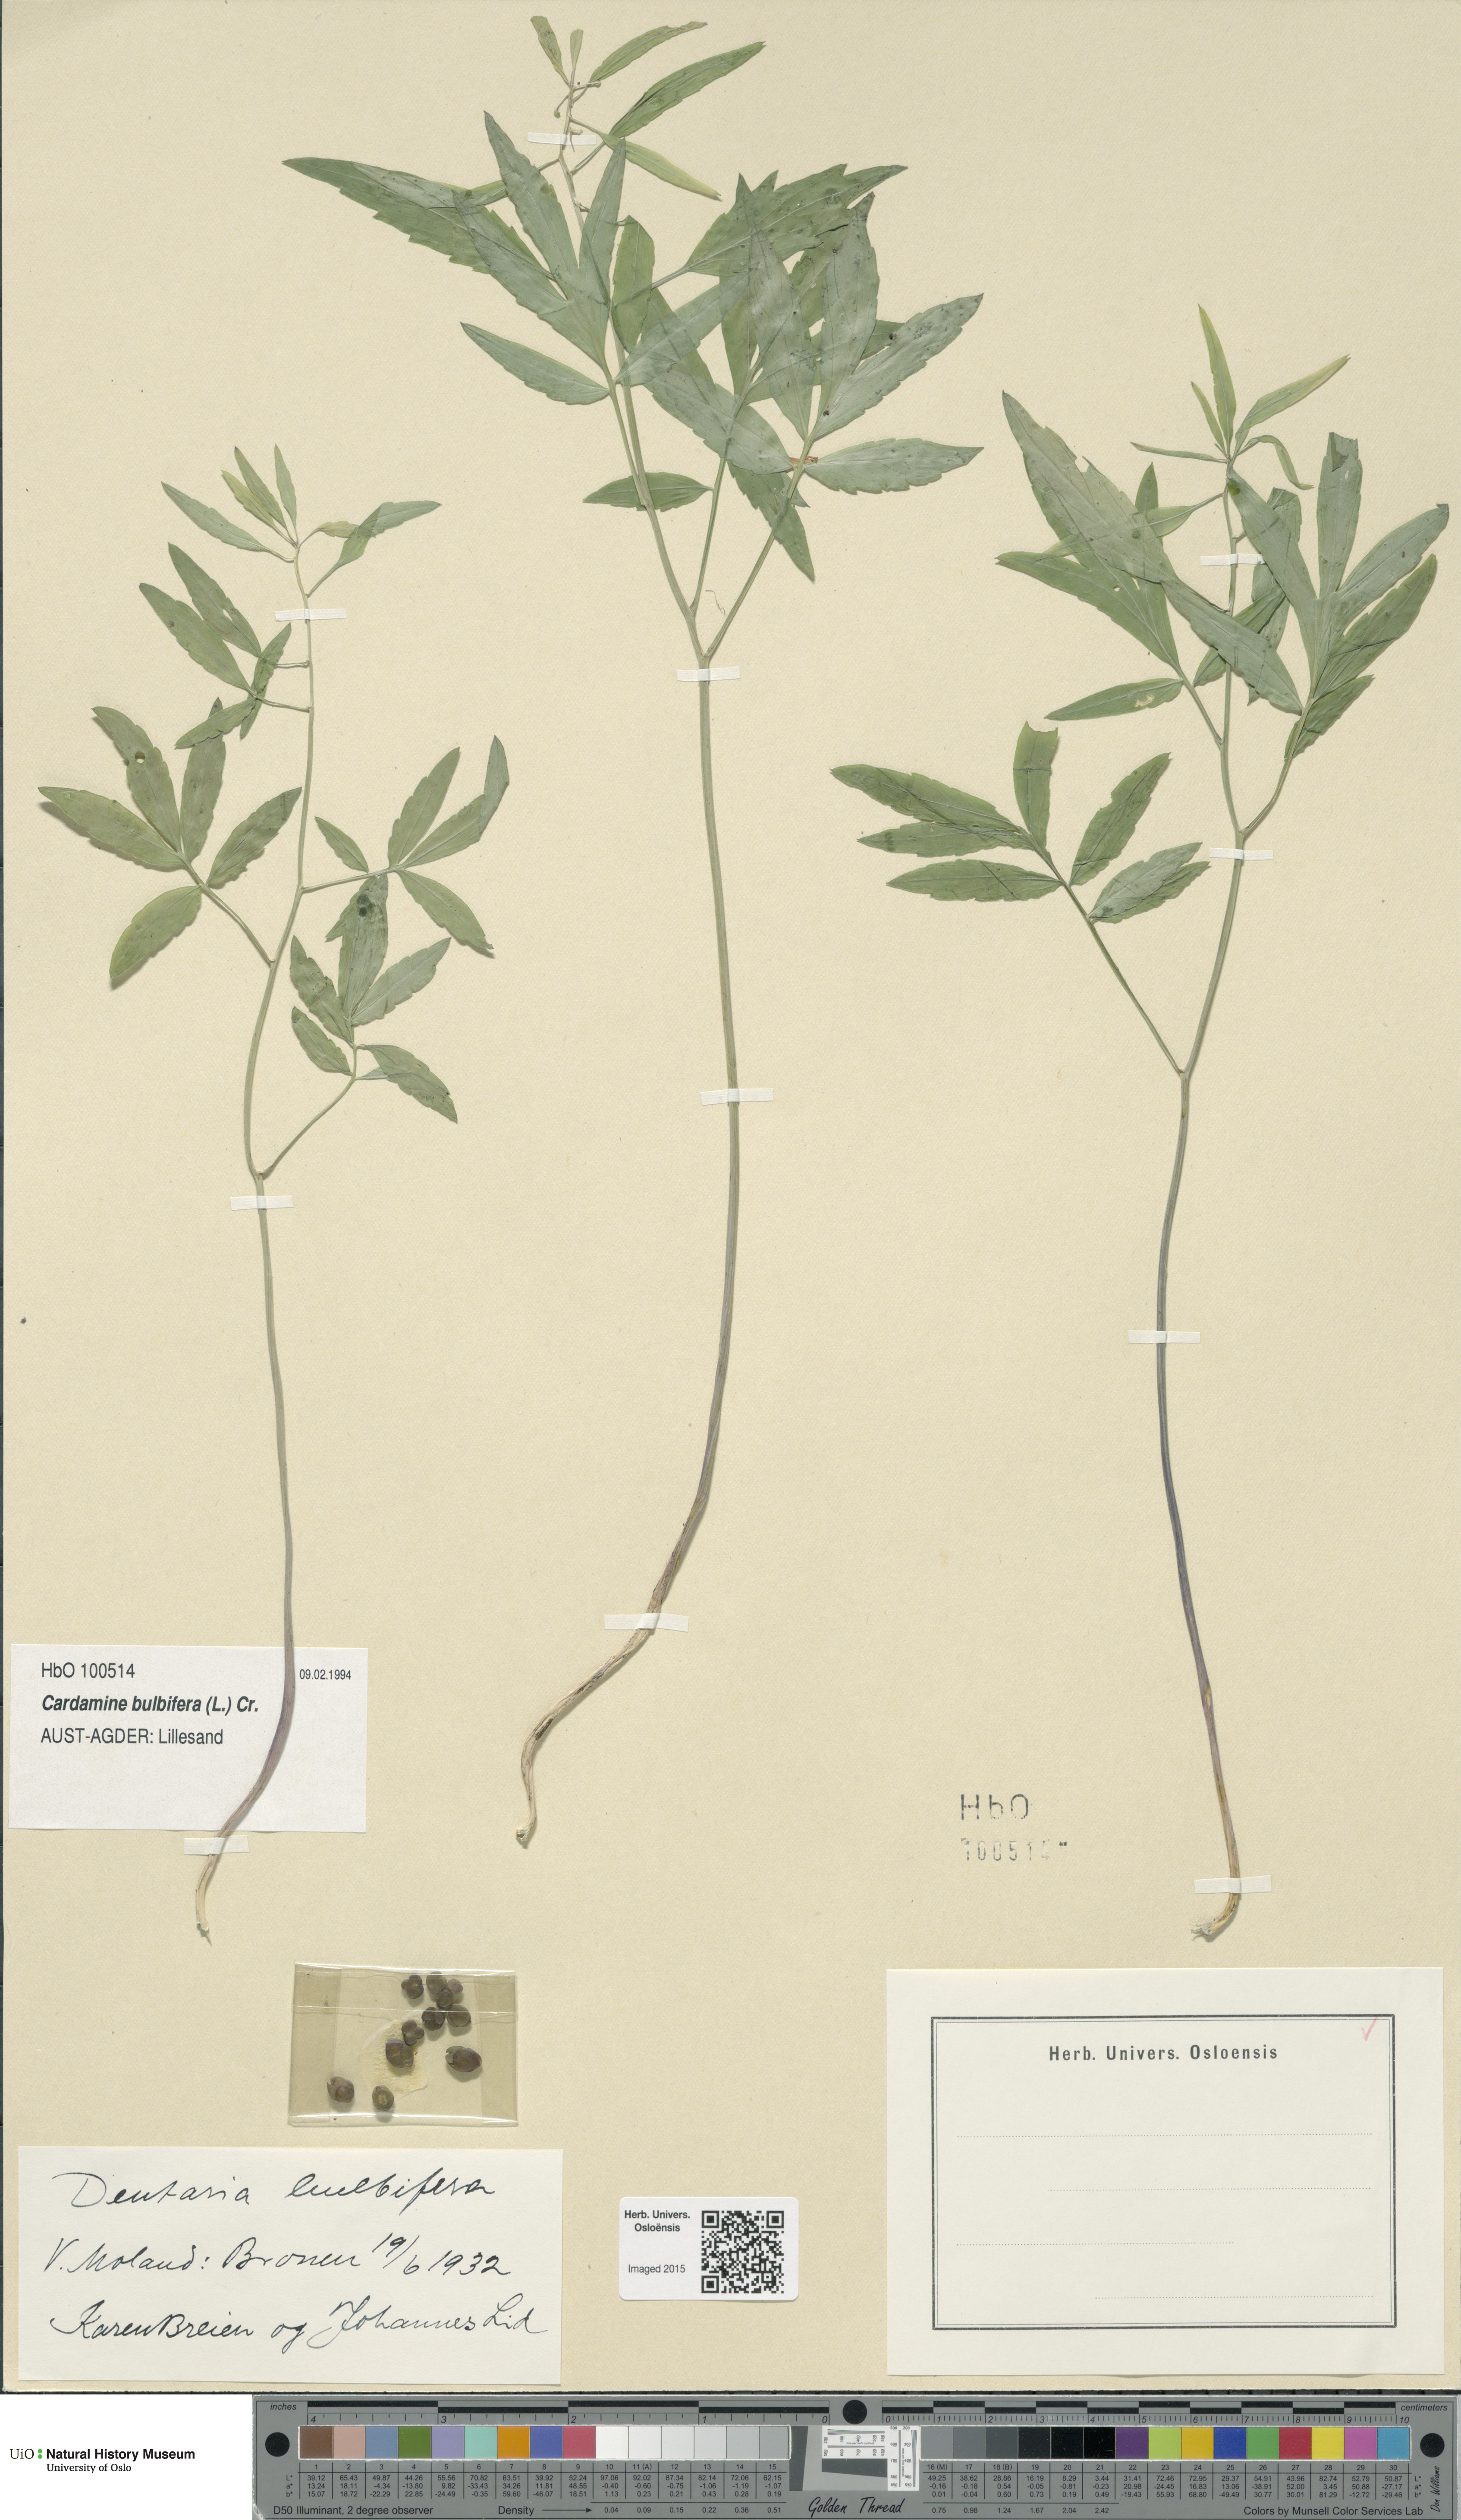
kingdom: Plantae
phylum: Tracheophyta
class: Magnoliopsida
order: Brassicales
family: Brassicaceae
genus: Cardamine
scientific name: Cardamine bulbifera
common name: Coralroot bittercress
